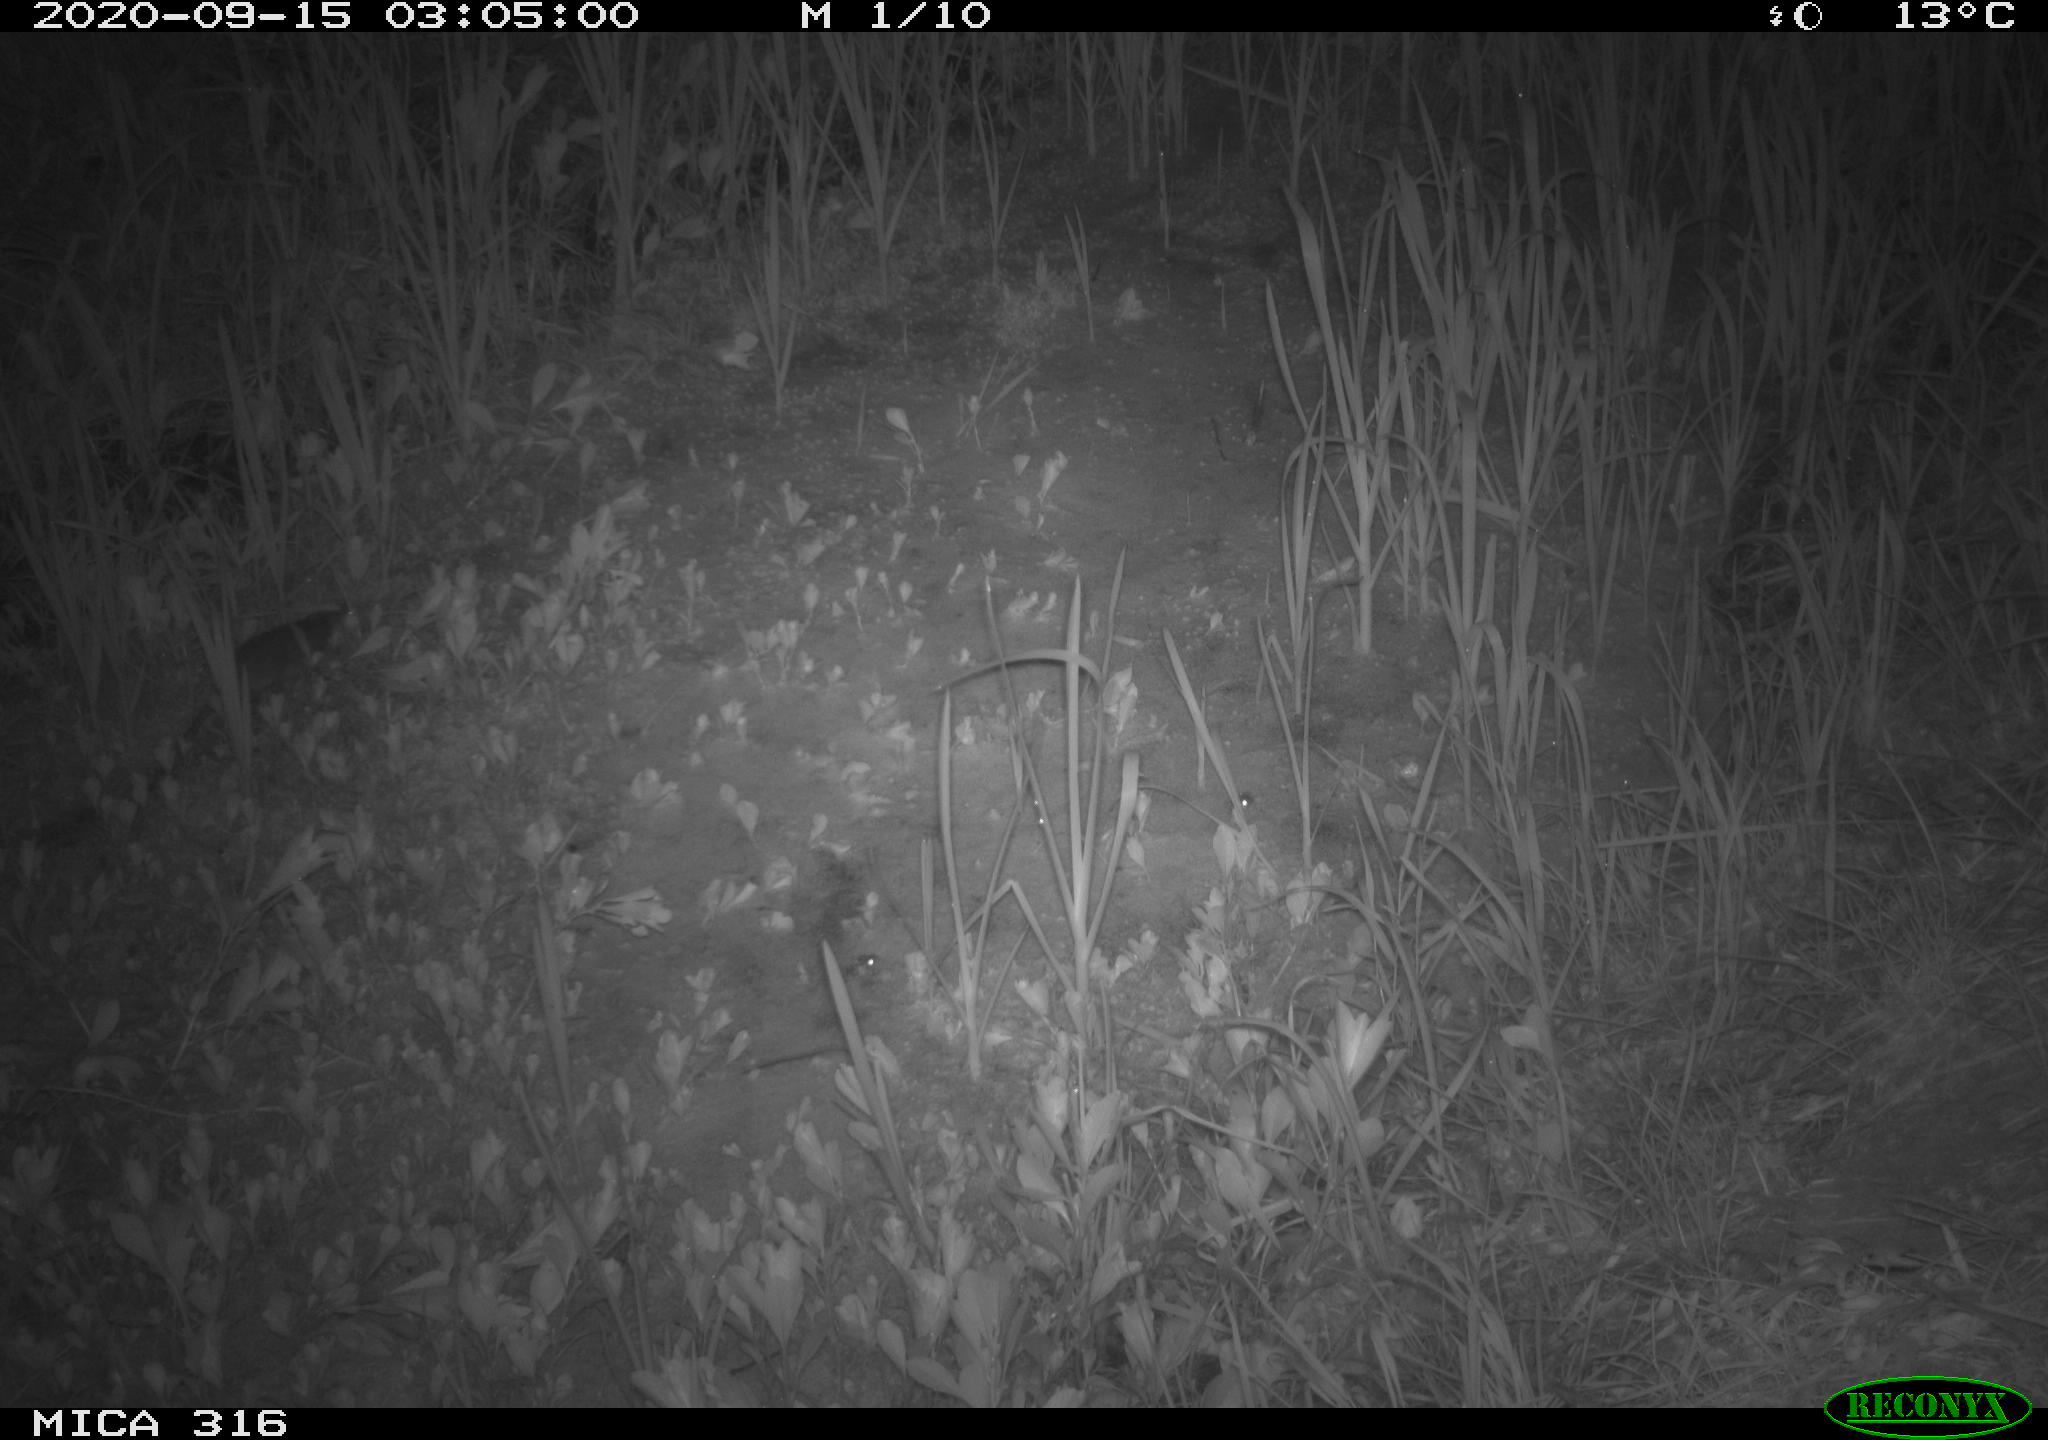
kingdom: Animalia
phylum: Chordata
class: Mammalia
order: Rodentia
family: Muridae
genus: Rattus
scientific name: Rattus norvegicus
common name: Brown rat
